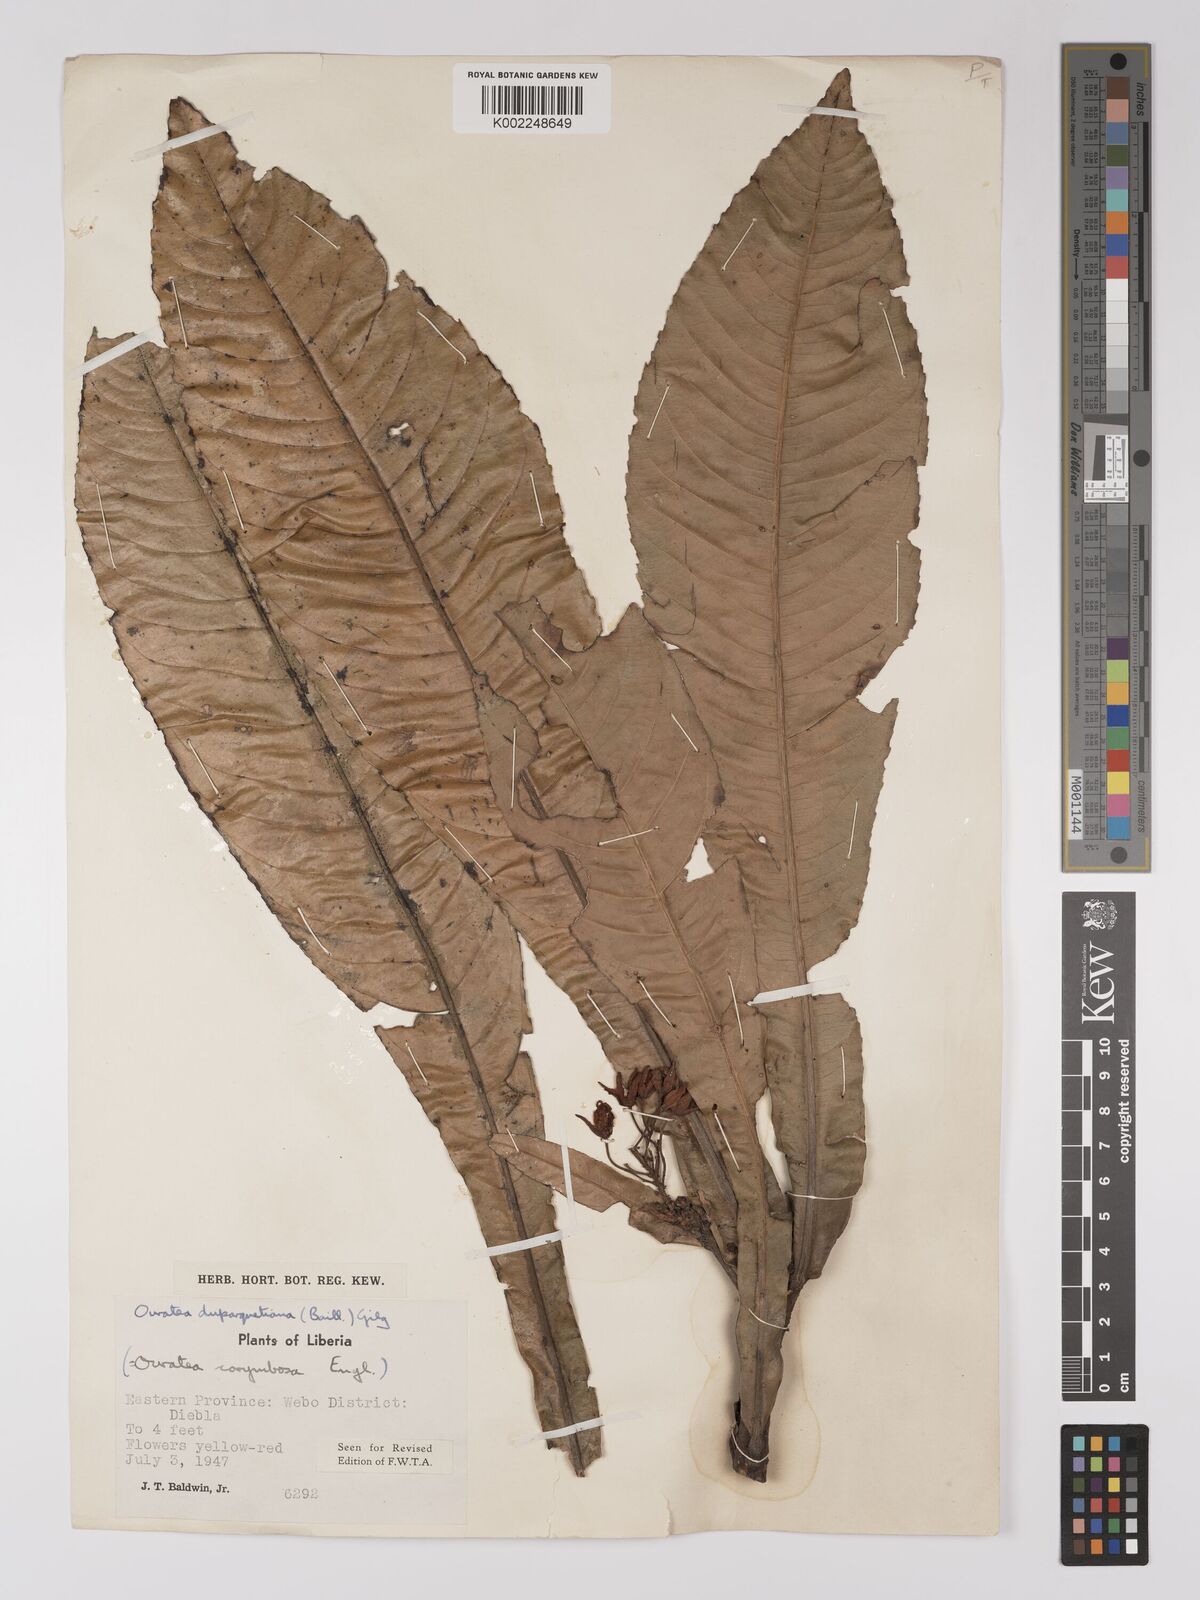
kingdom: Plantae
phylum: Tracheophyta
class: Magnoliopsida
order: Malpighiales
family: Ochnaceae
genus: Campylospermum
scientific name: Campylospermum duparquetianum
